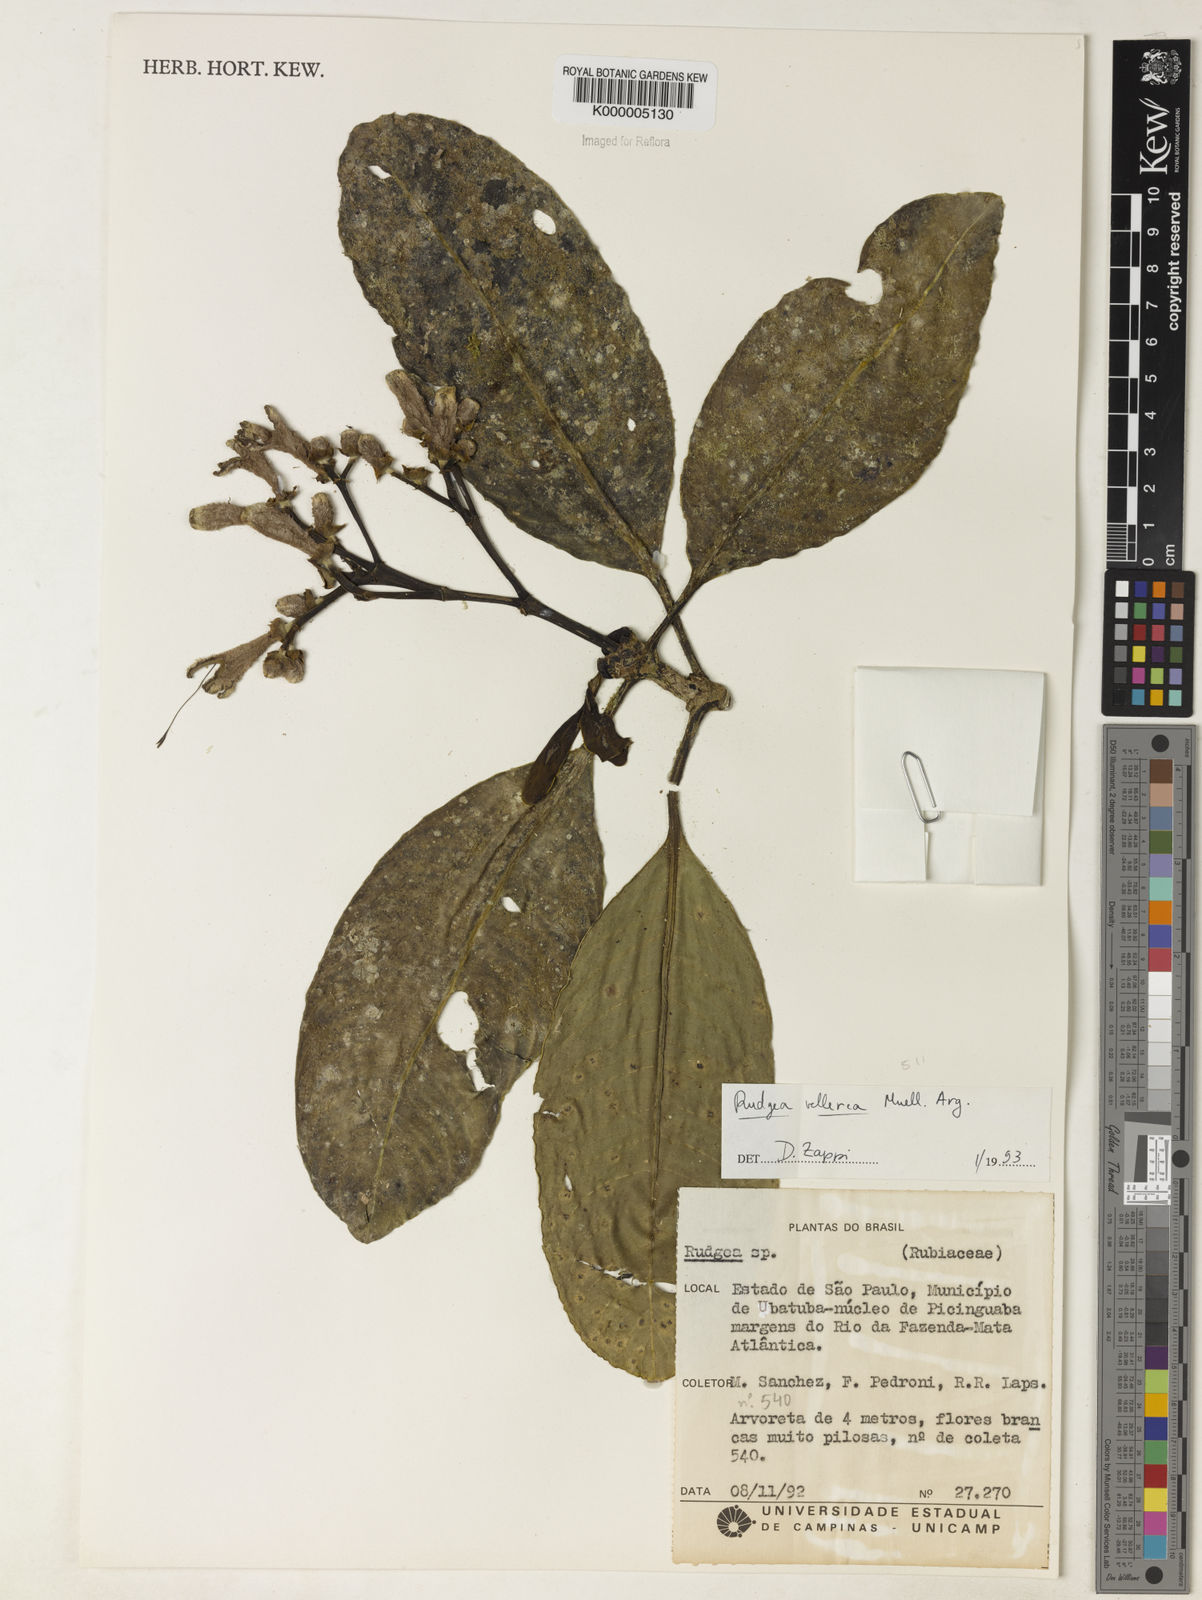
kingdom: Plantae
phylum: Tracheophyta
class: Magnoliopsida
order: Gentianales
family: Rubiaceae
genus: Rudgea
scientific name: Rudgea vellerea
